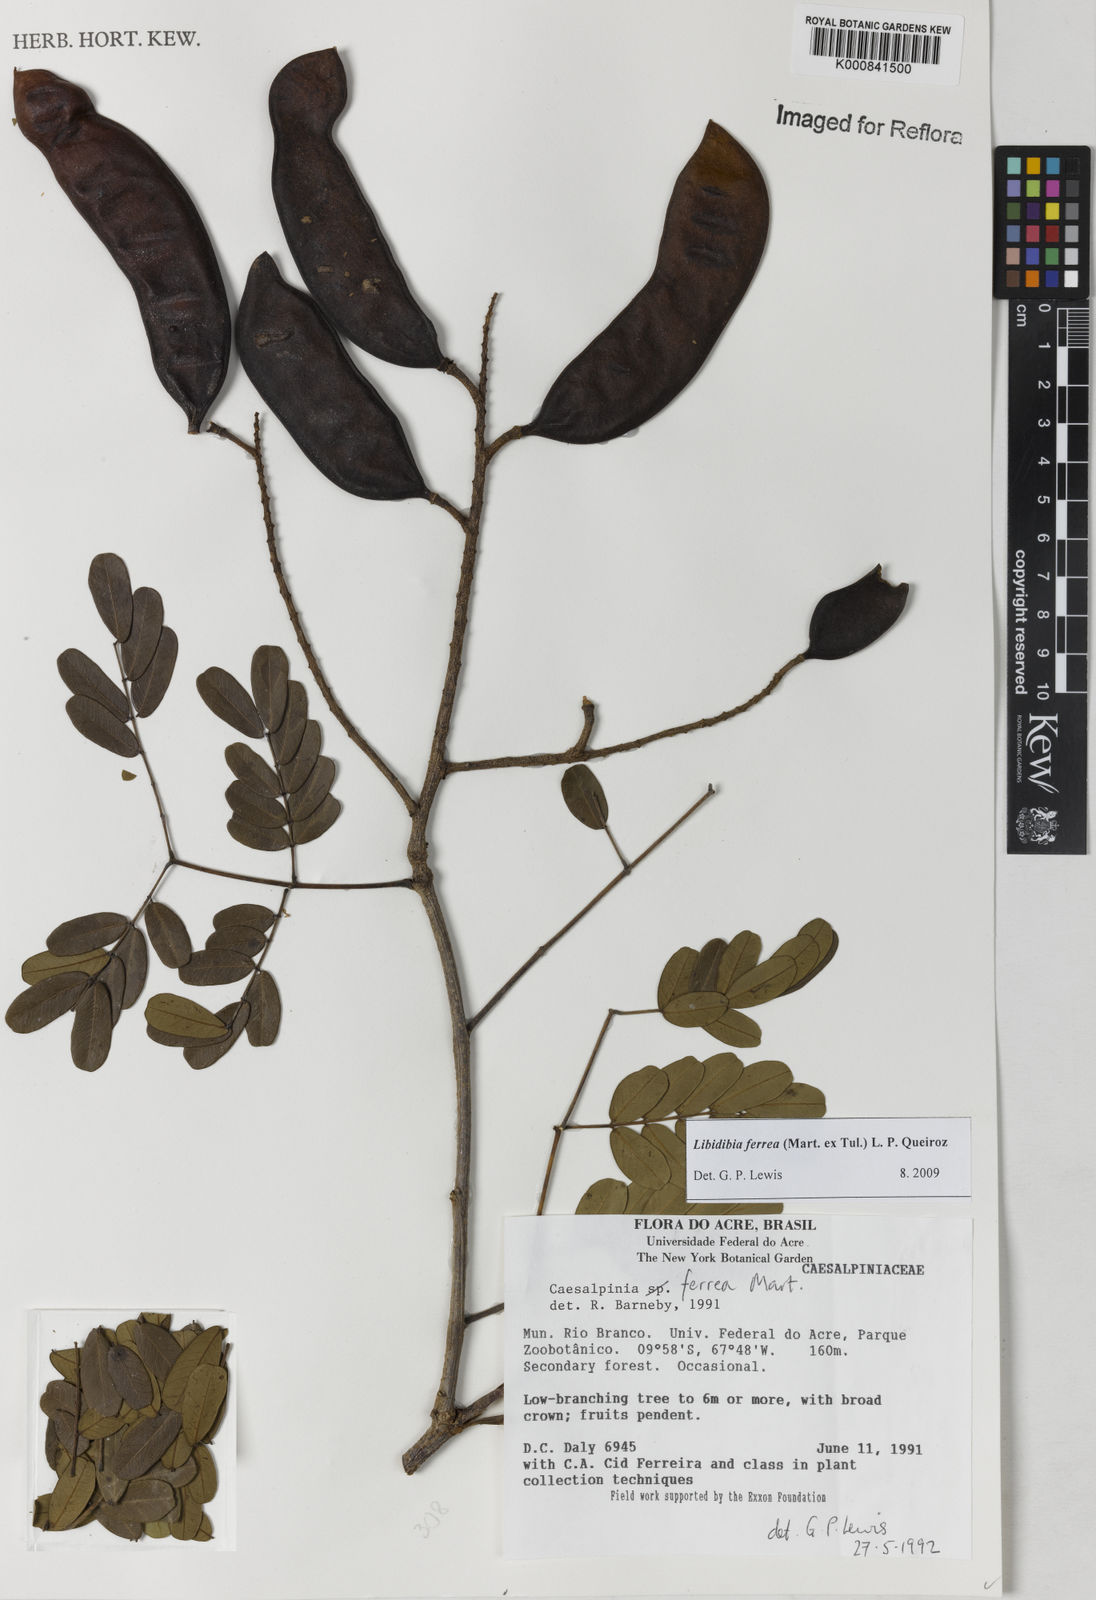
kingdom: Plantae
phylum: Tracheophyta
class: Magnoliopsida
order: Fabales
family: Fabaceae
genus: Libidibia
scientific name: Libidibia ferrea
